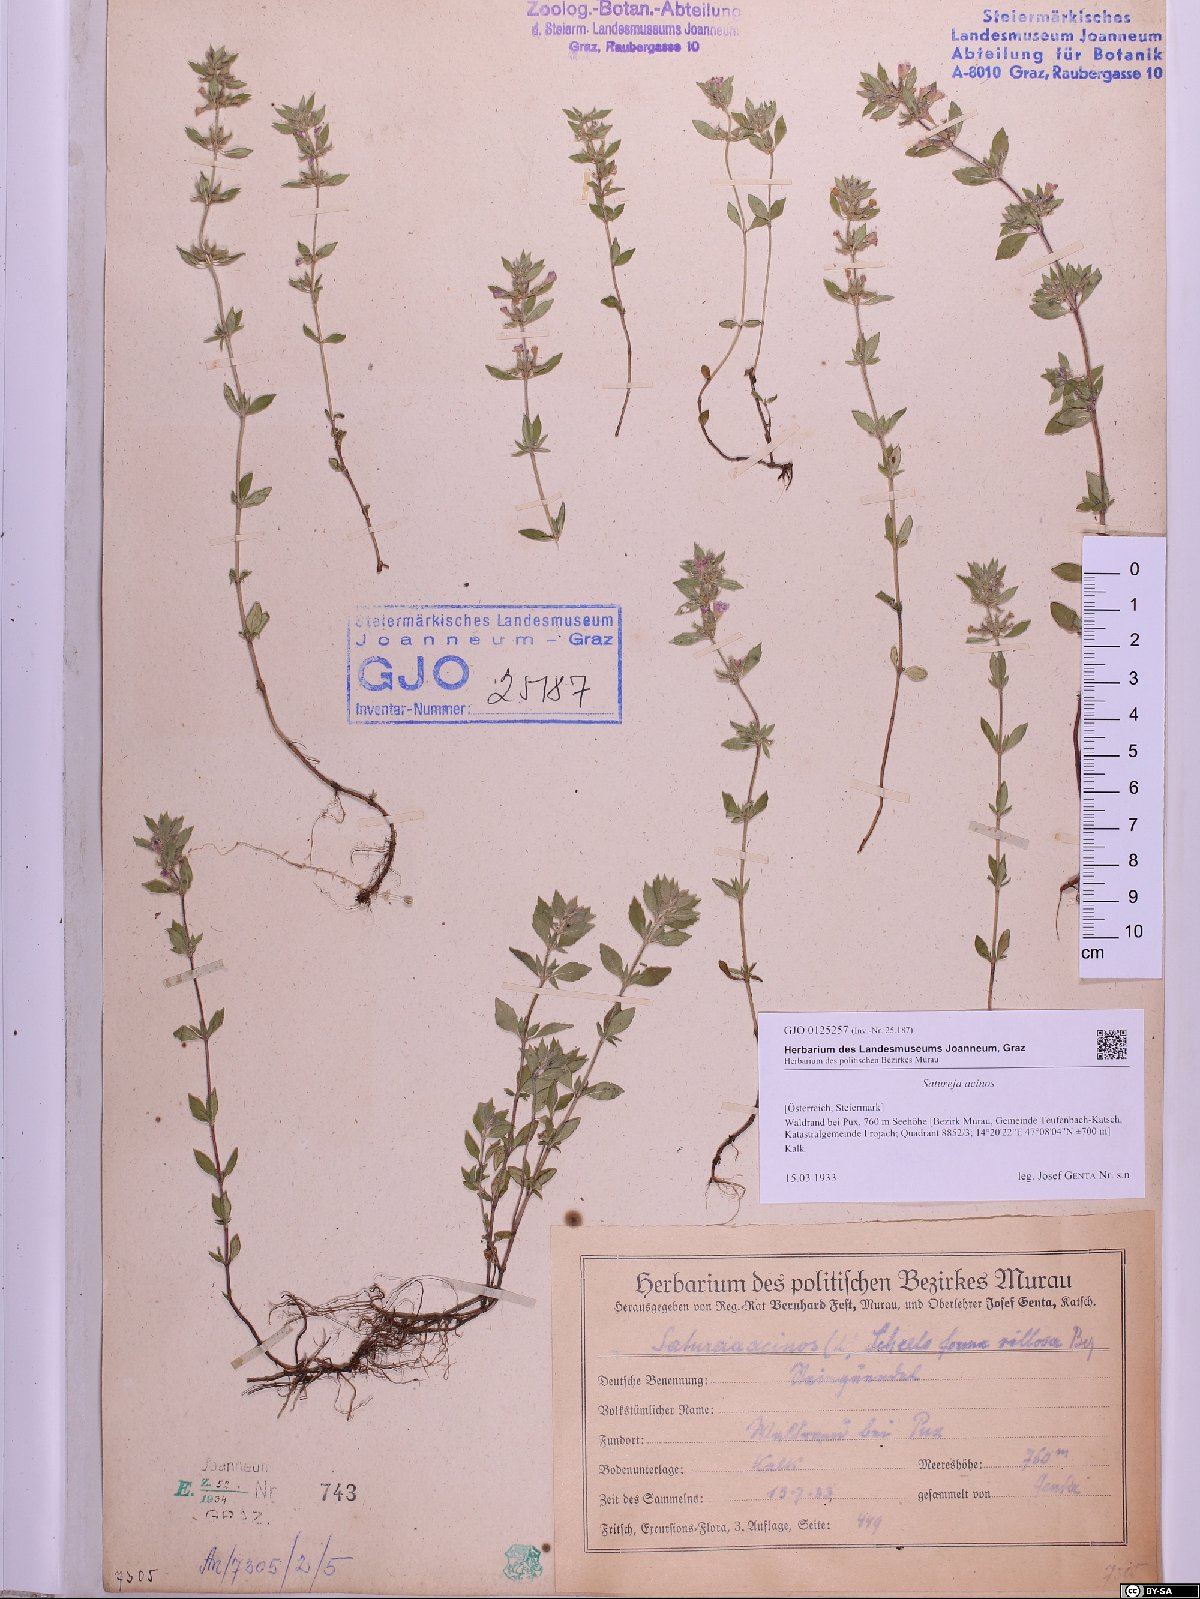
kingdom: Plantae
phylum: Tracheophyta
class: Magnoliopsida
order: Lamiales
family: Lamiaceae
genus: Clinopodium
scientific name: Clinopodium acinos
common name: Basil thyme
